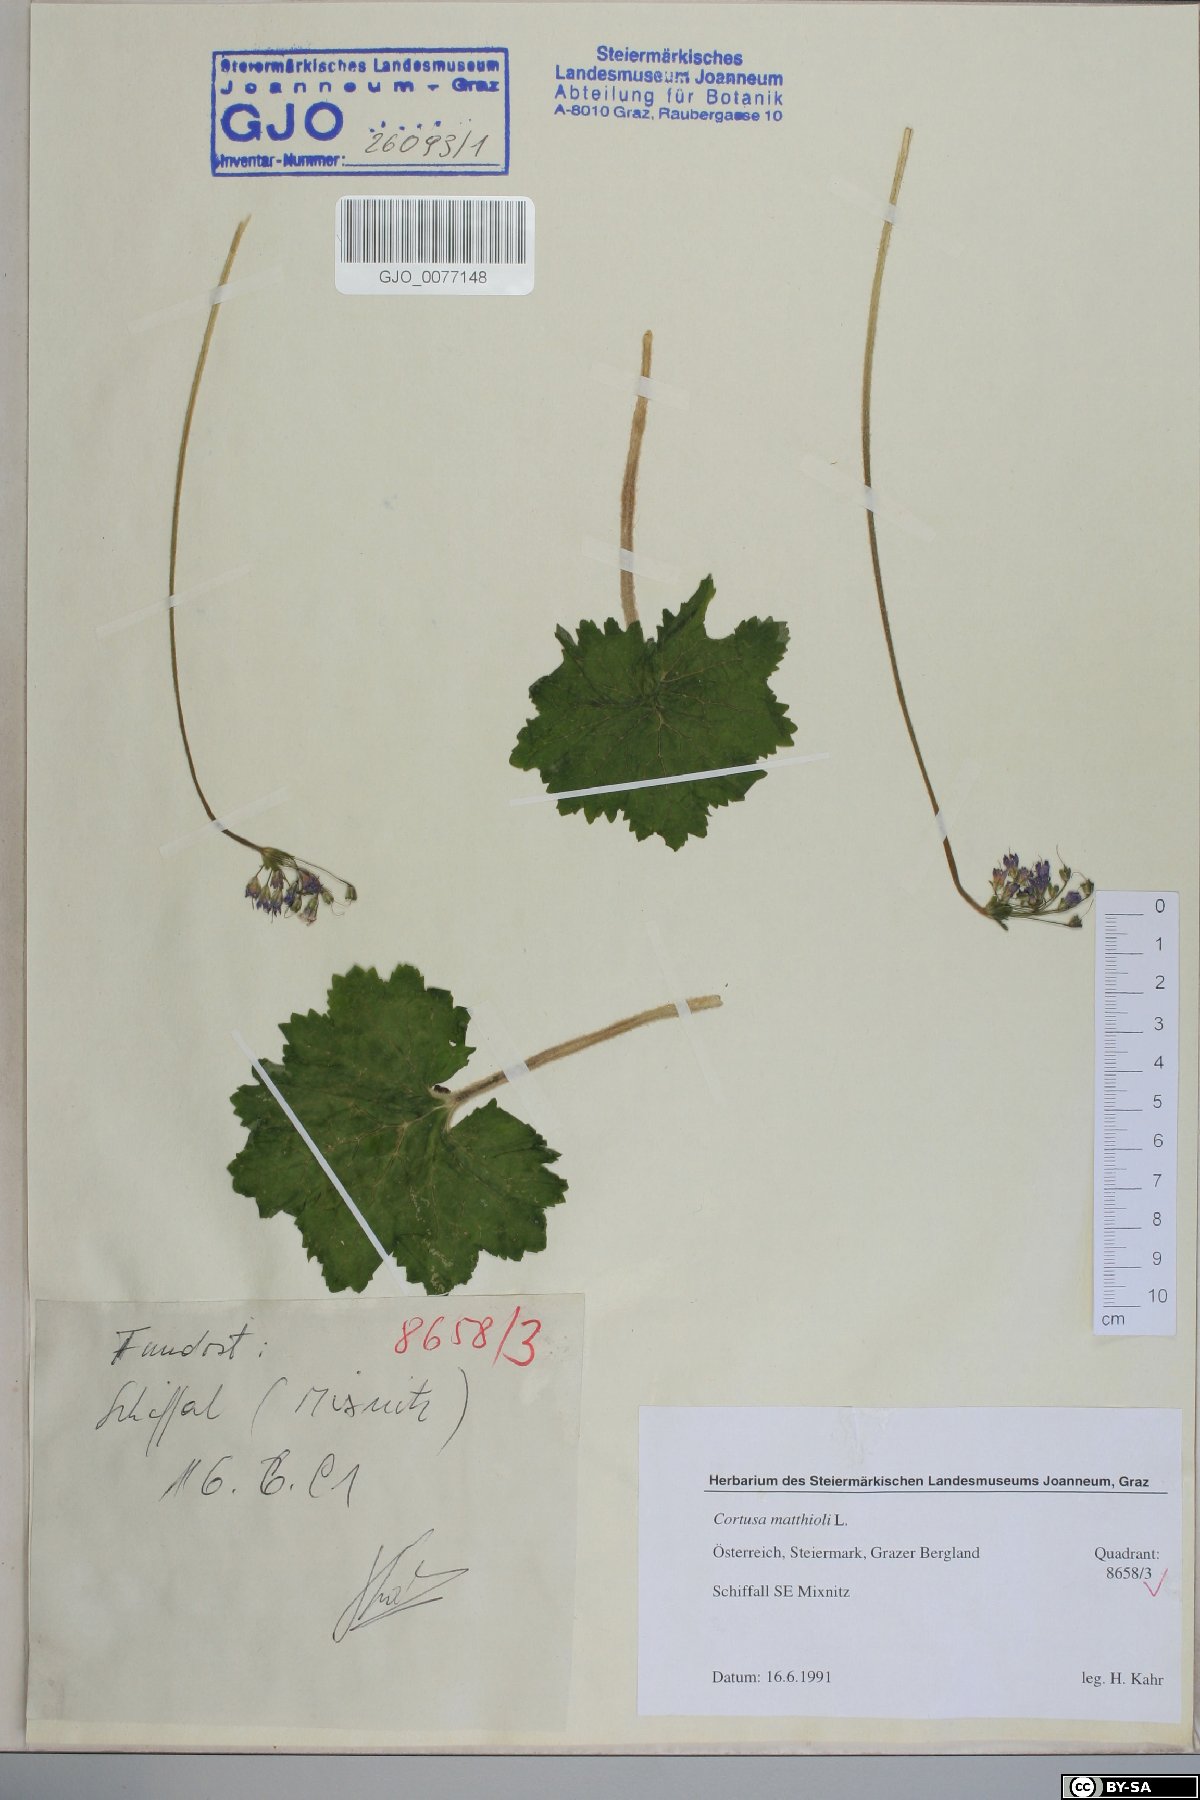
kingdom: Plantae
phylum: Tracheophyta
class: Magnoliopsida
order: Ericales
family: Primulaceae
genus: Primula
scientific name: Primula matthioli
